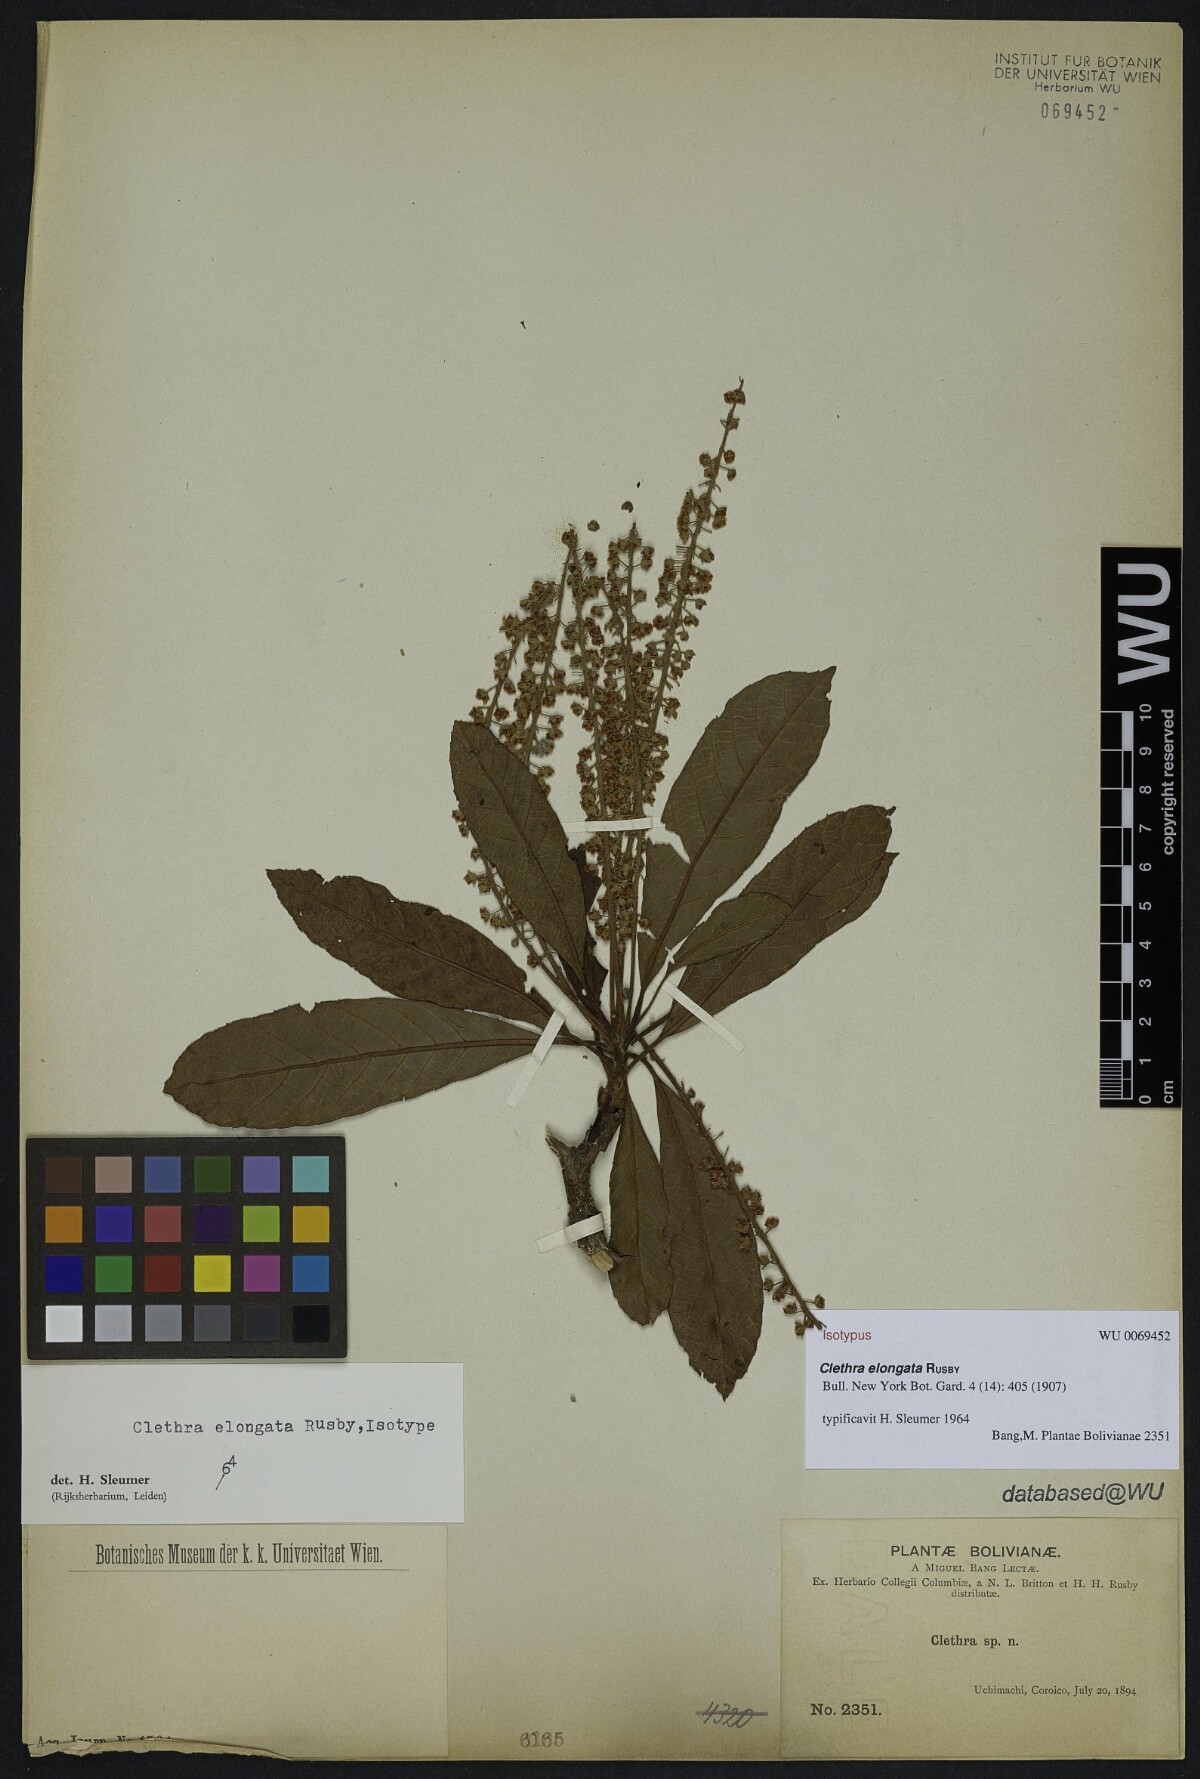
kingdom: Plantae
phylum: Tracheophyta
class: Magnoliopsida
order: Ericales
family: Clethraceae
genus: Clethra
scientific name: Clethra elongata
